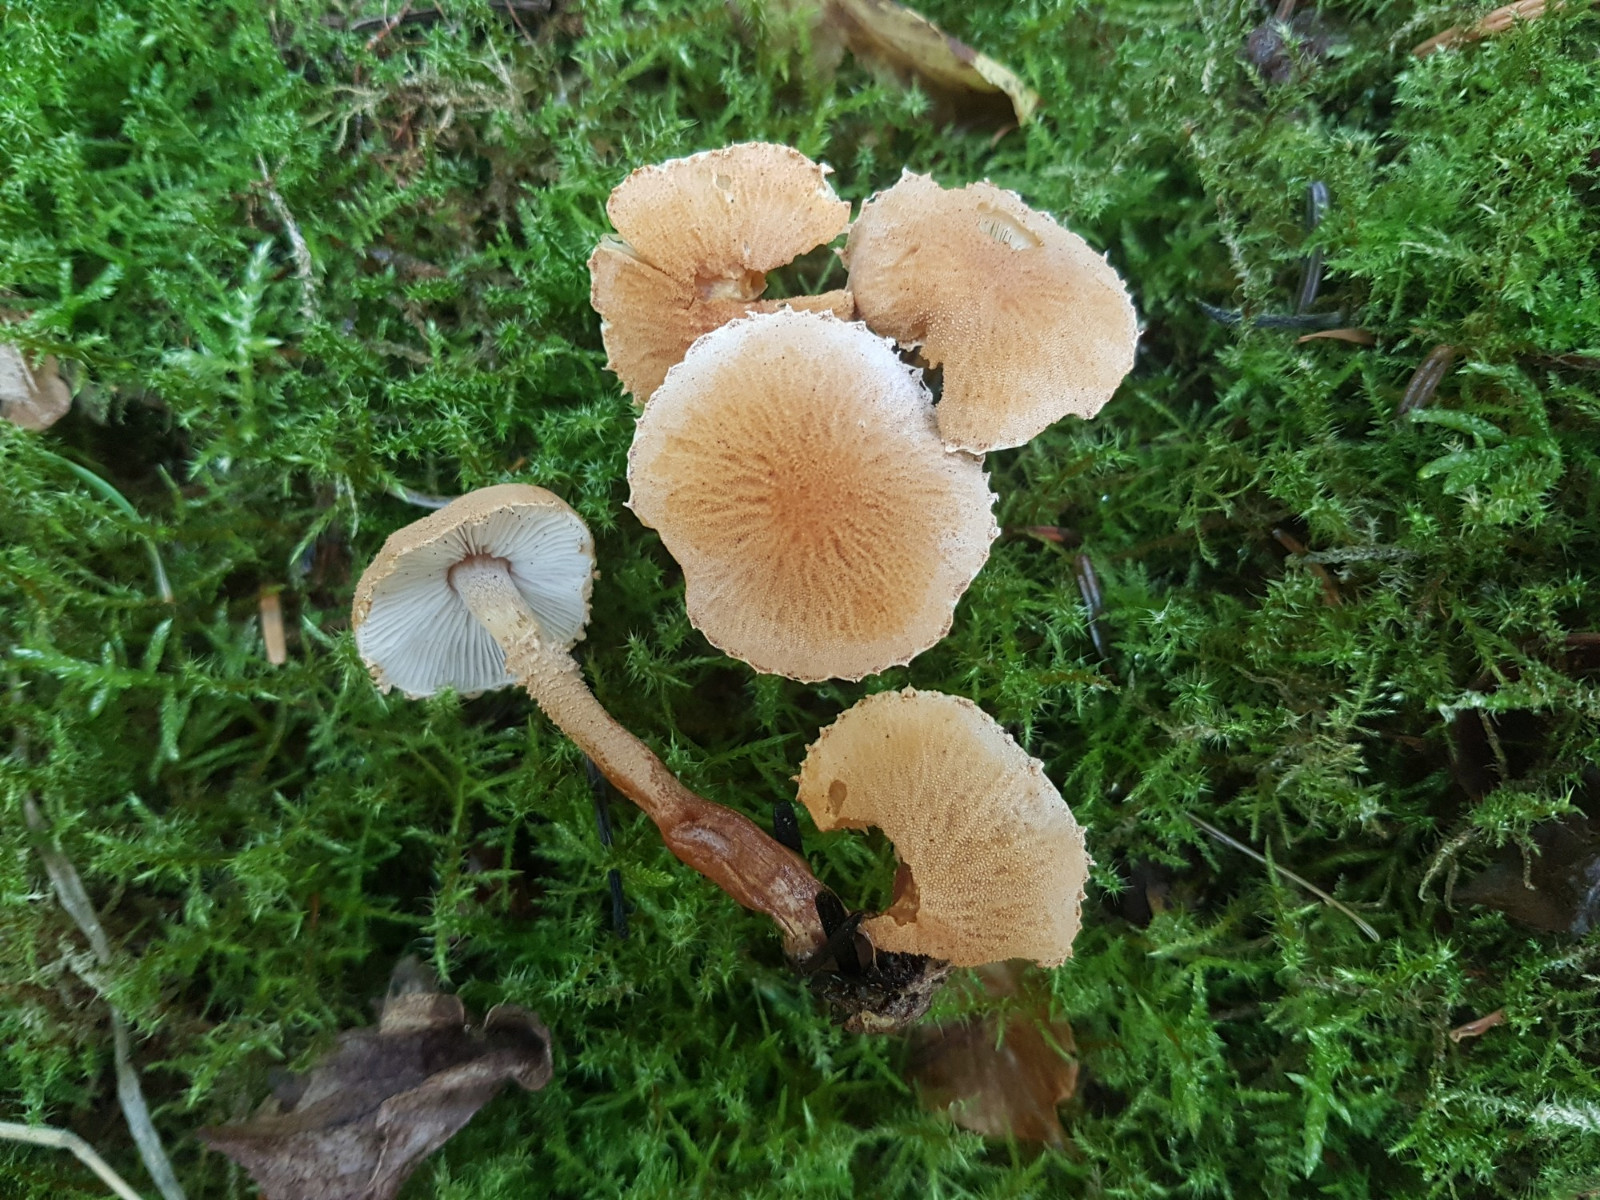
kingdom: Fungi
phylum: Basidiomycota
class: Agaricomycetes
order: Agaricales
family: Tricholomataceae
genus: Cystoderma
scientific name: Cystoderma amianthinum
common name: okkergul grynhat
